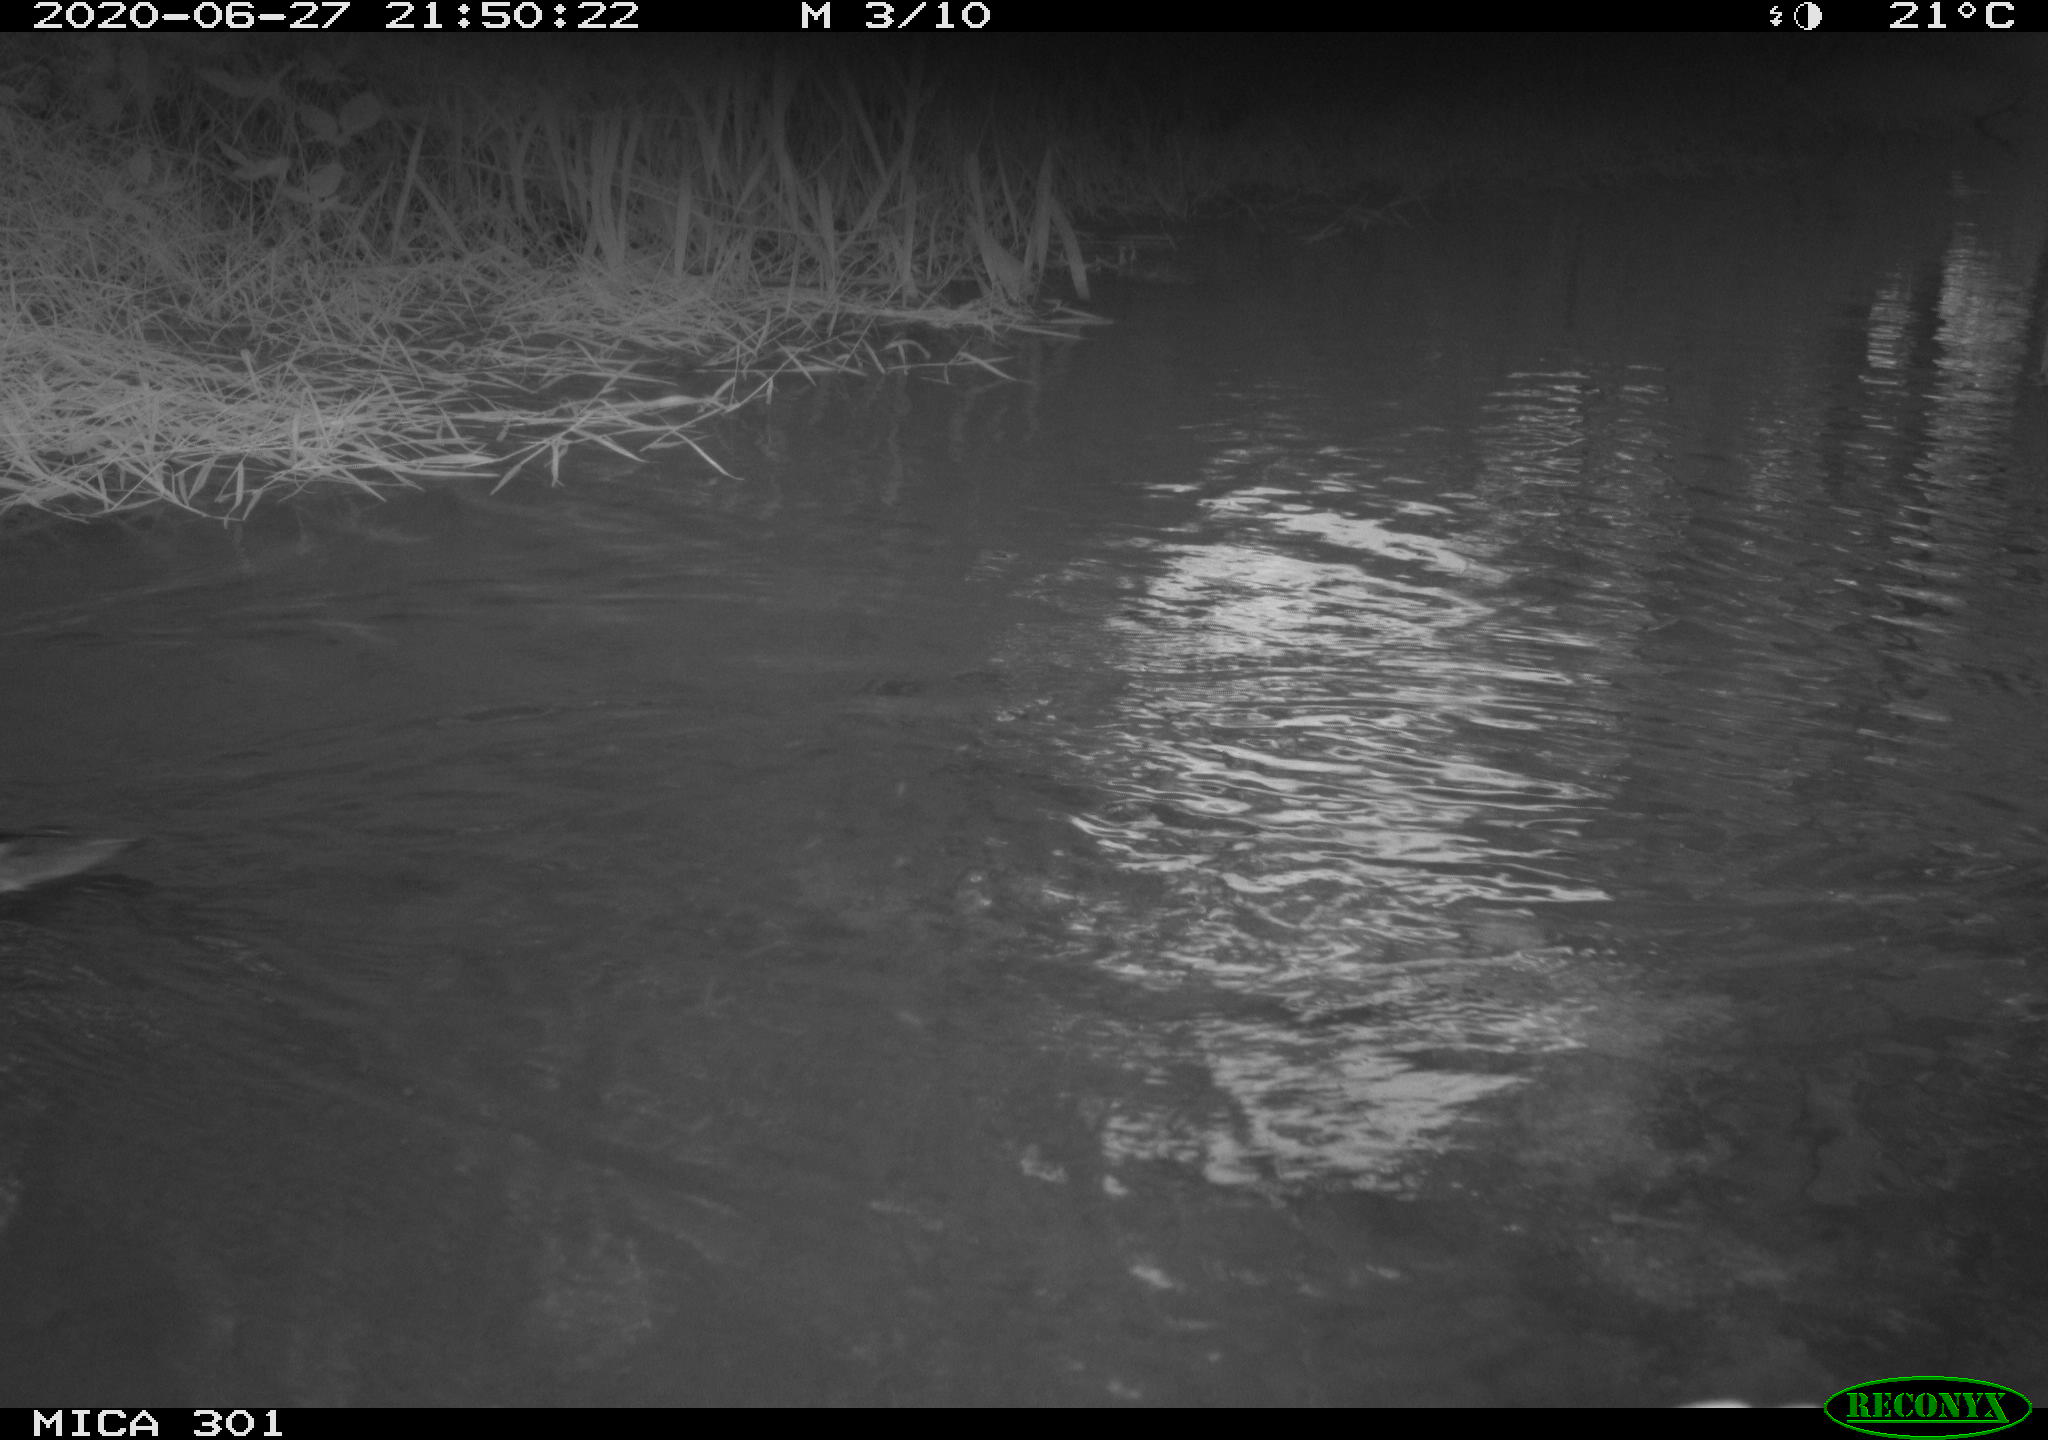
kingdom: Animalia
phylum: Chordata
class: Aves
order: Anseriformes
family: Anatidae
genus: Aix
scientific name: Aix galericulata
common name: Mandarin duck
